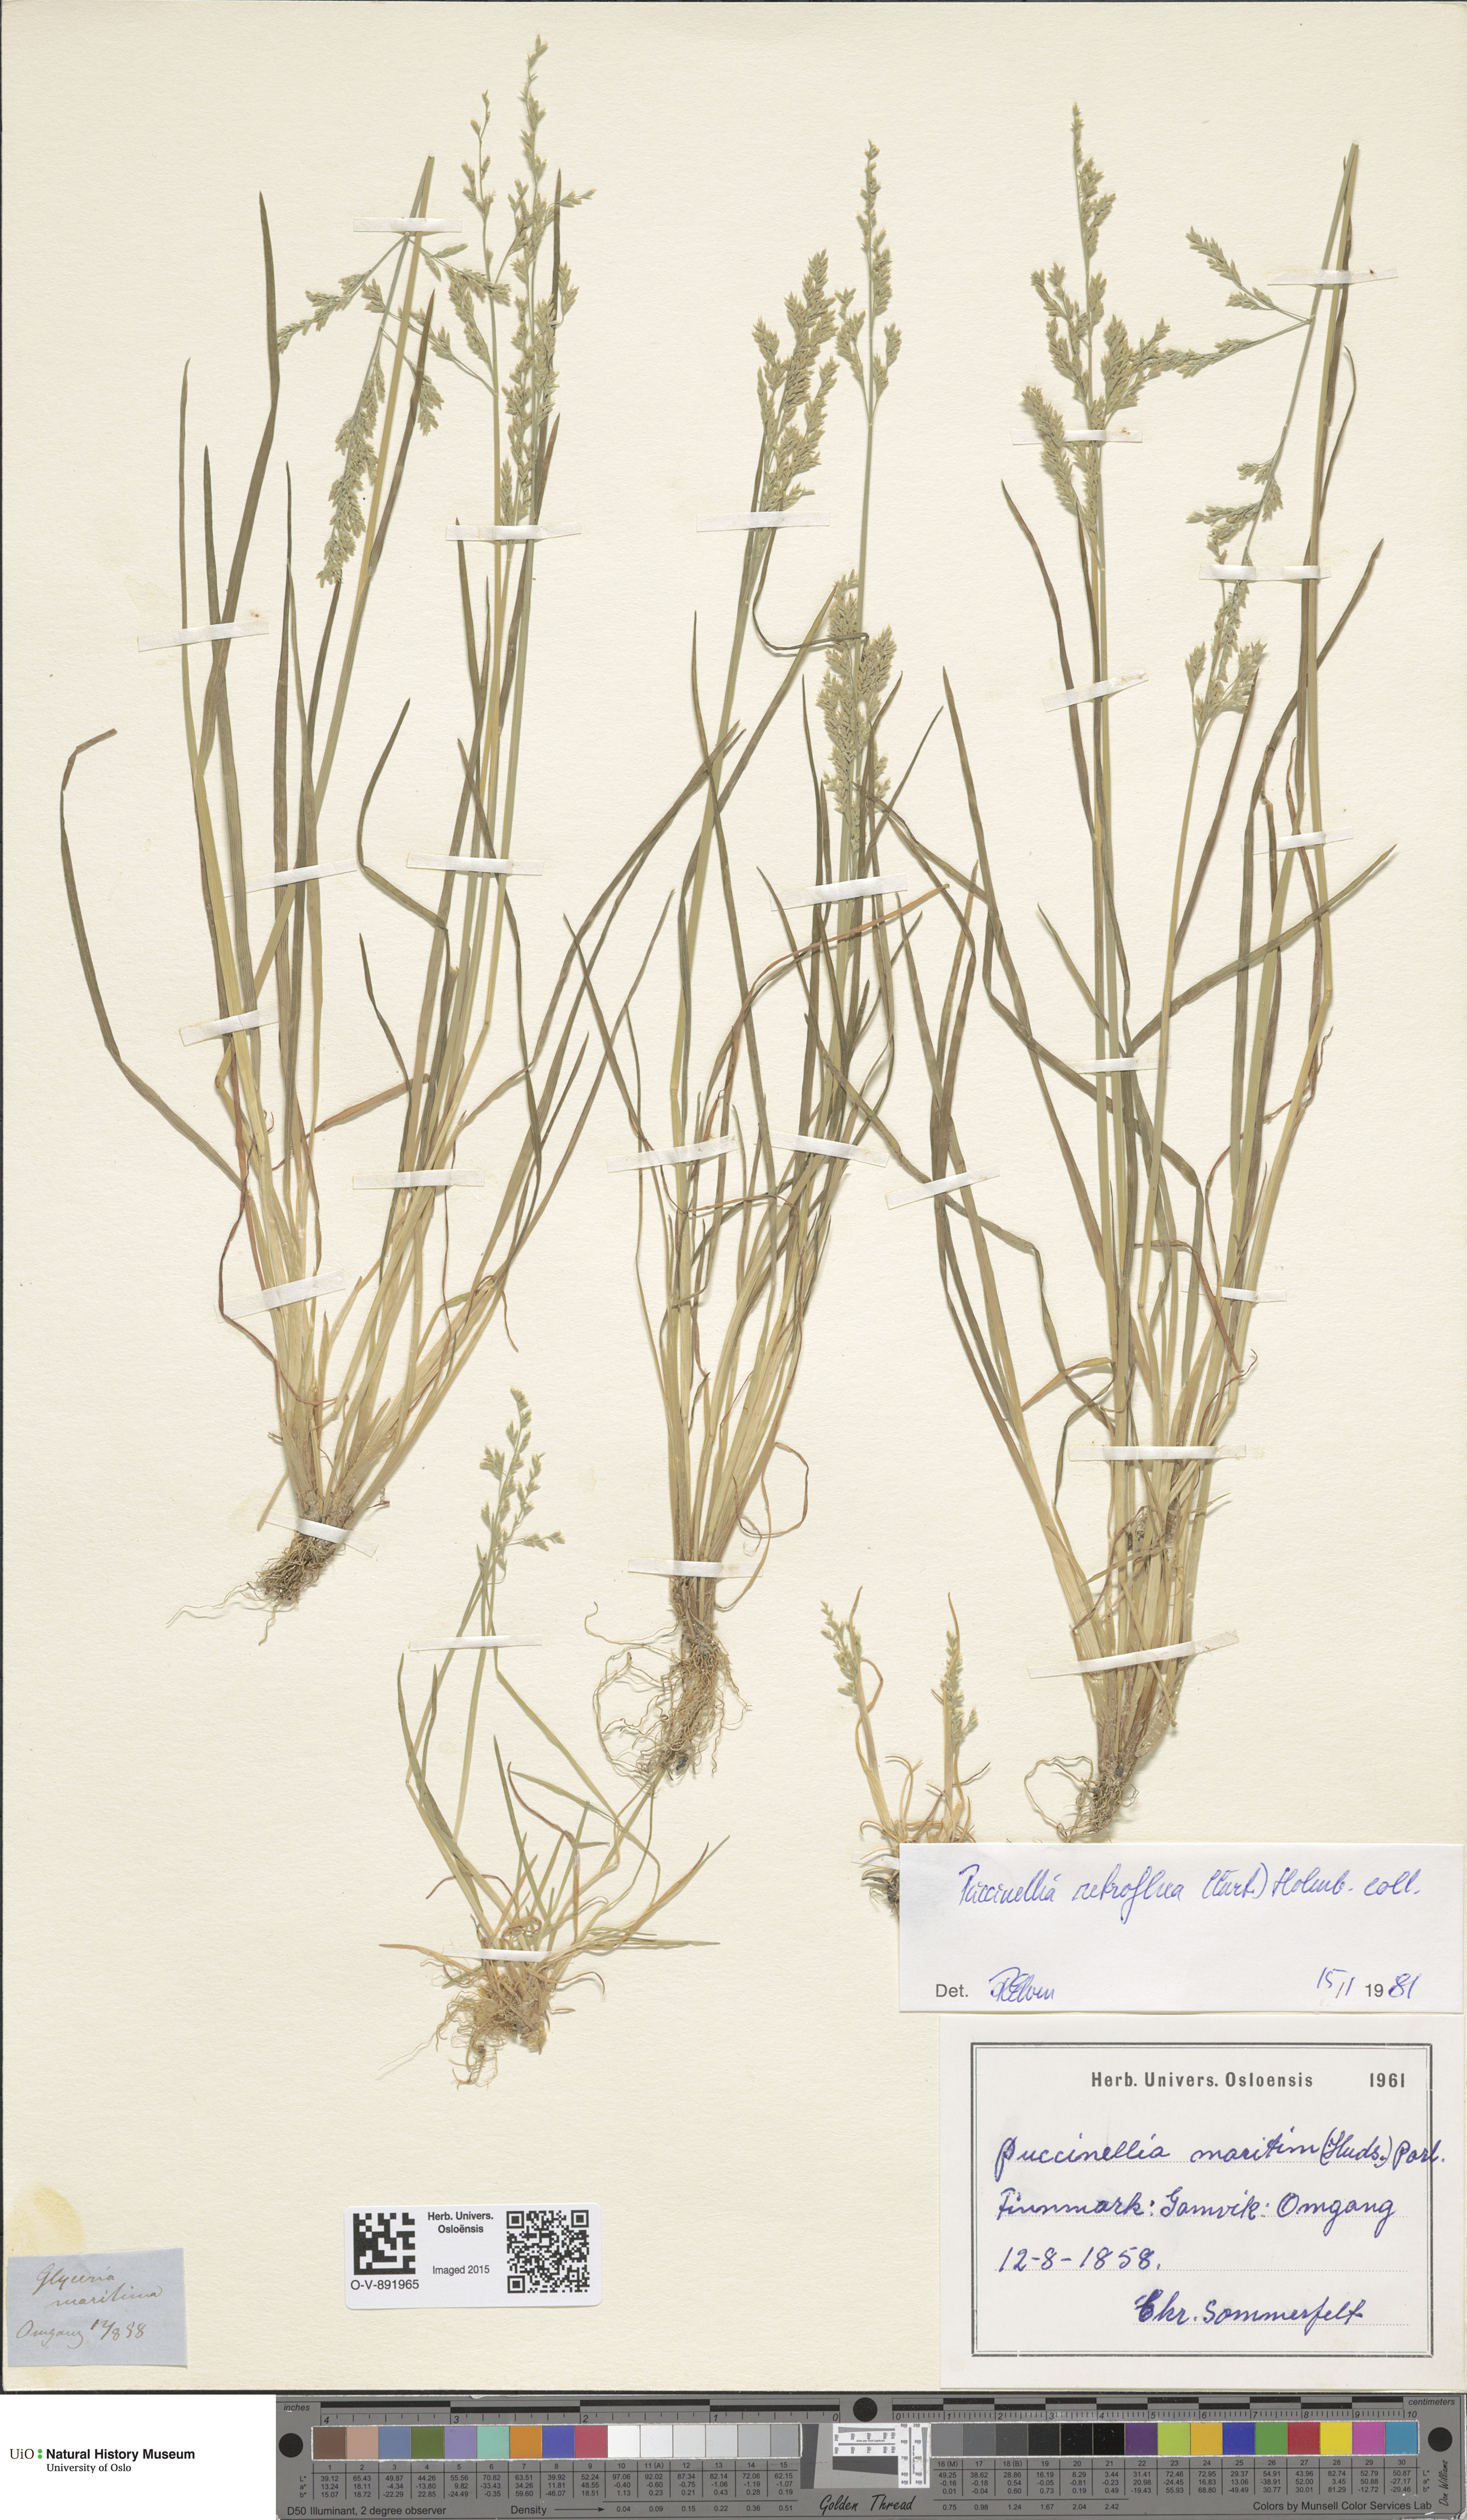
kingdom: Plantae
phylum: Tracheophyta
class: Liliopsida
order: Poales
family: Poaceae
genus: Puccinellia
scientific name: Puccinellia distans
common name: Weeping alkaligrass
